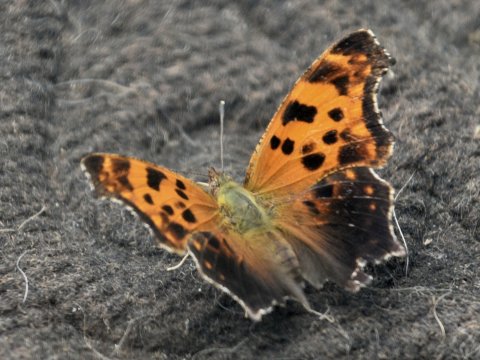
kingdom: Animalia
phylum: Arthropoda
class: Insecta
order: Lepidoptera
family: Nymphalidae
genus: Polygonia
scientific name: Polygonia comma
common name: Eastern Comma
